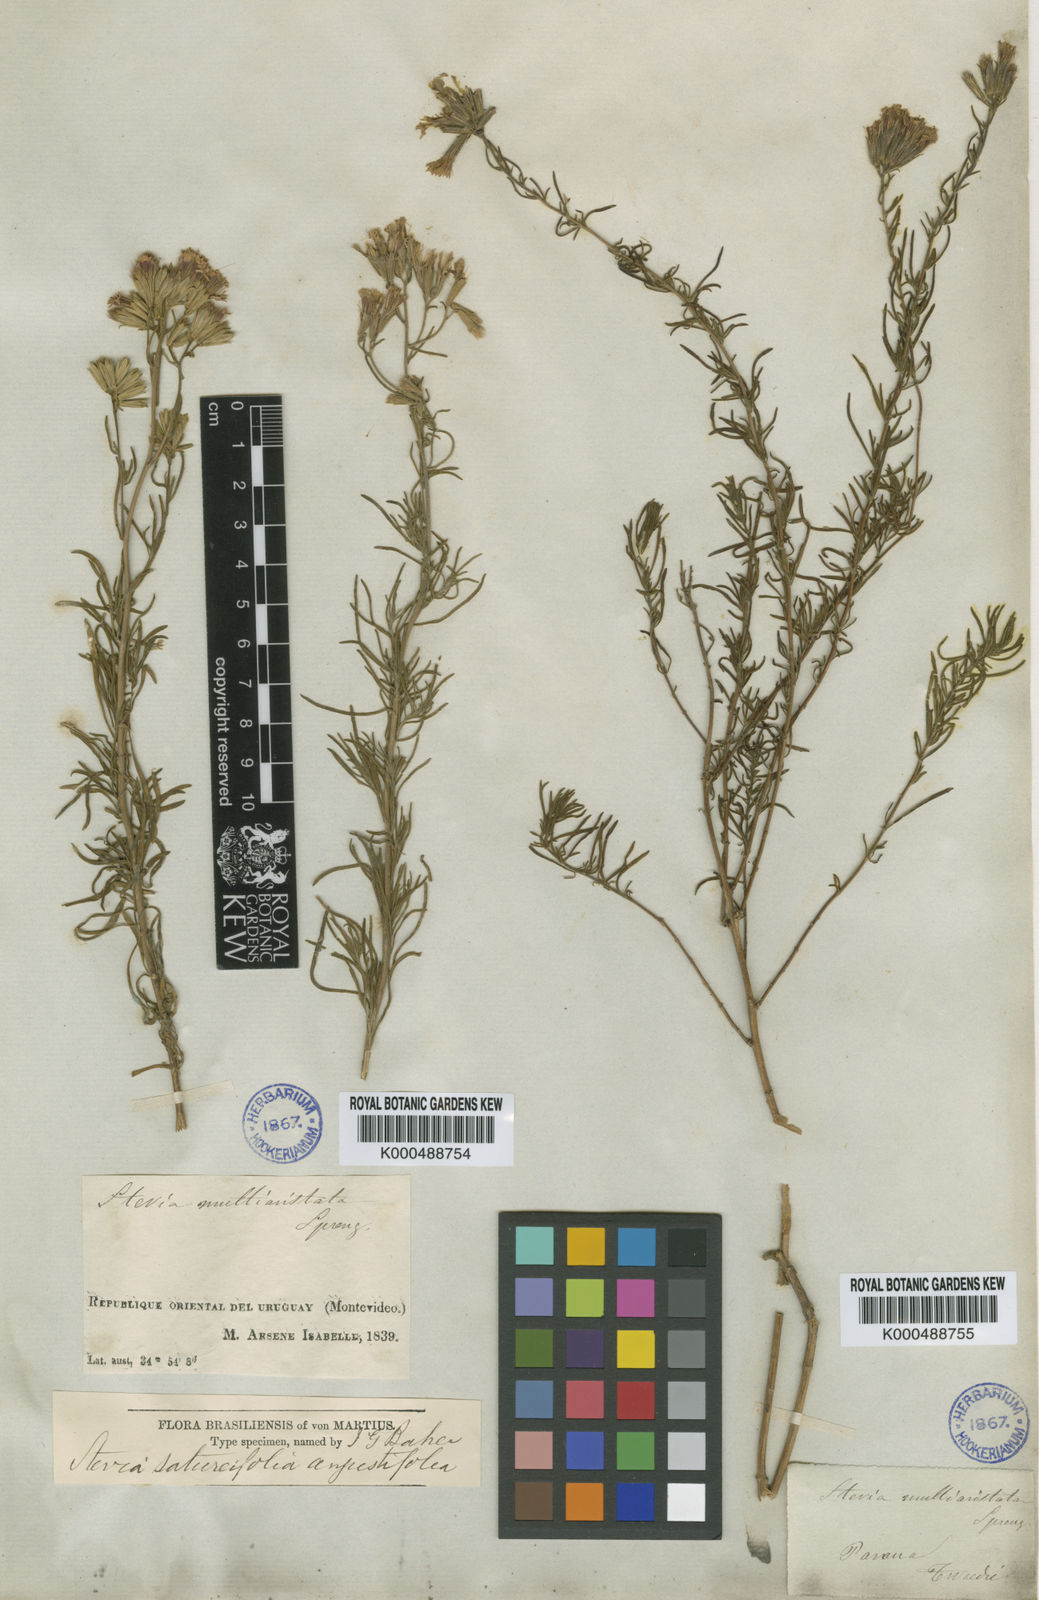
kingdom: Plantae
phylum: Tracheophyta
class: Magnoliopsida
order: Asterales
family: Asteraceae
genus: Stevia
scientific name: Stevia satureifolia
